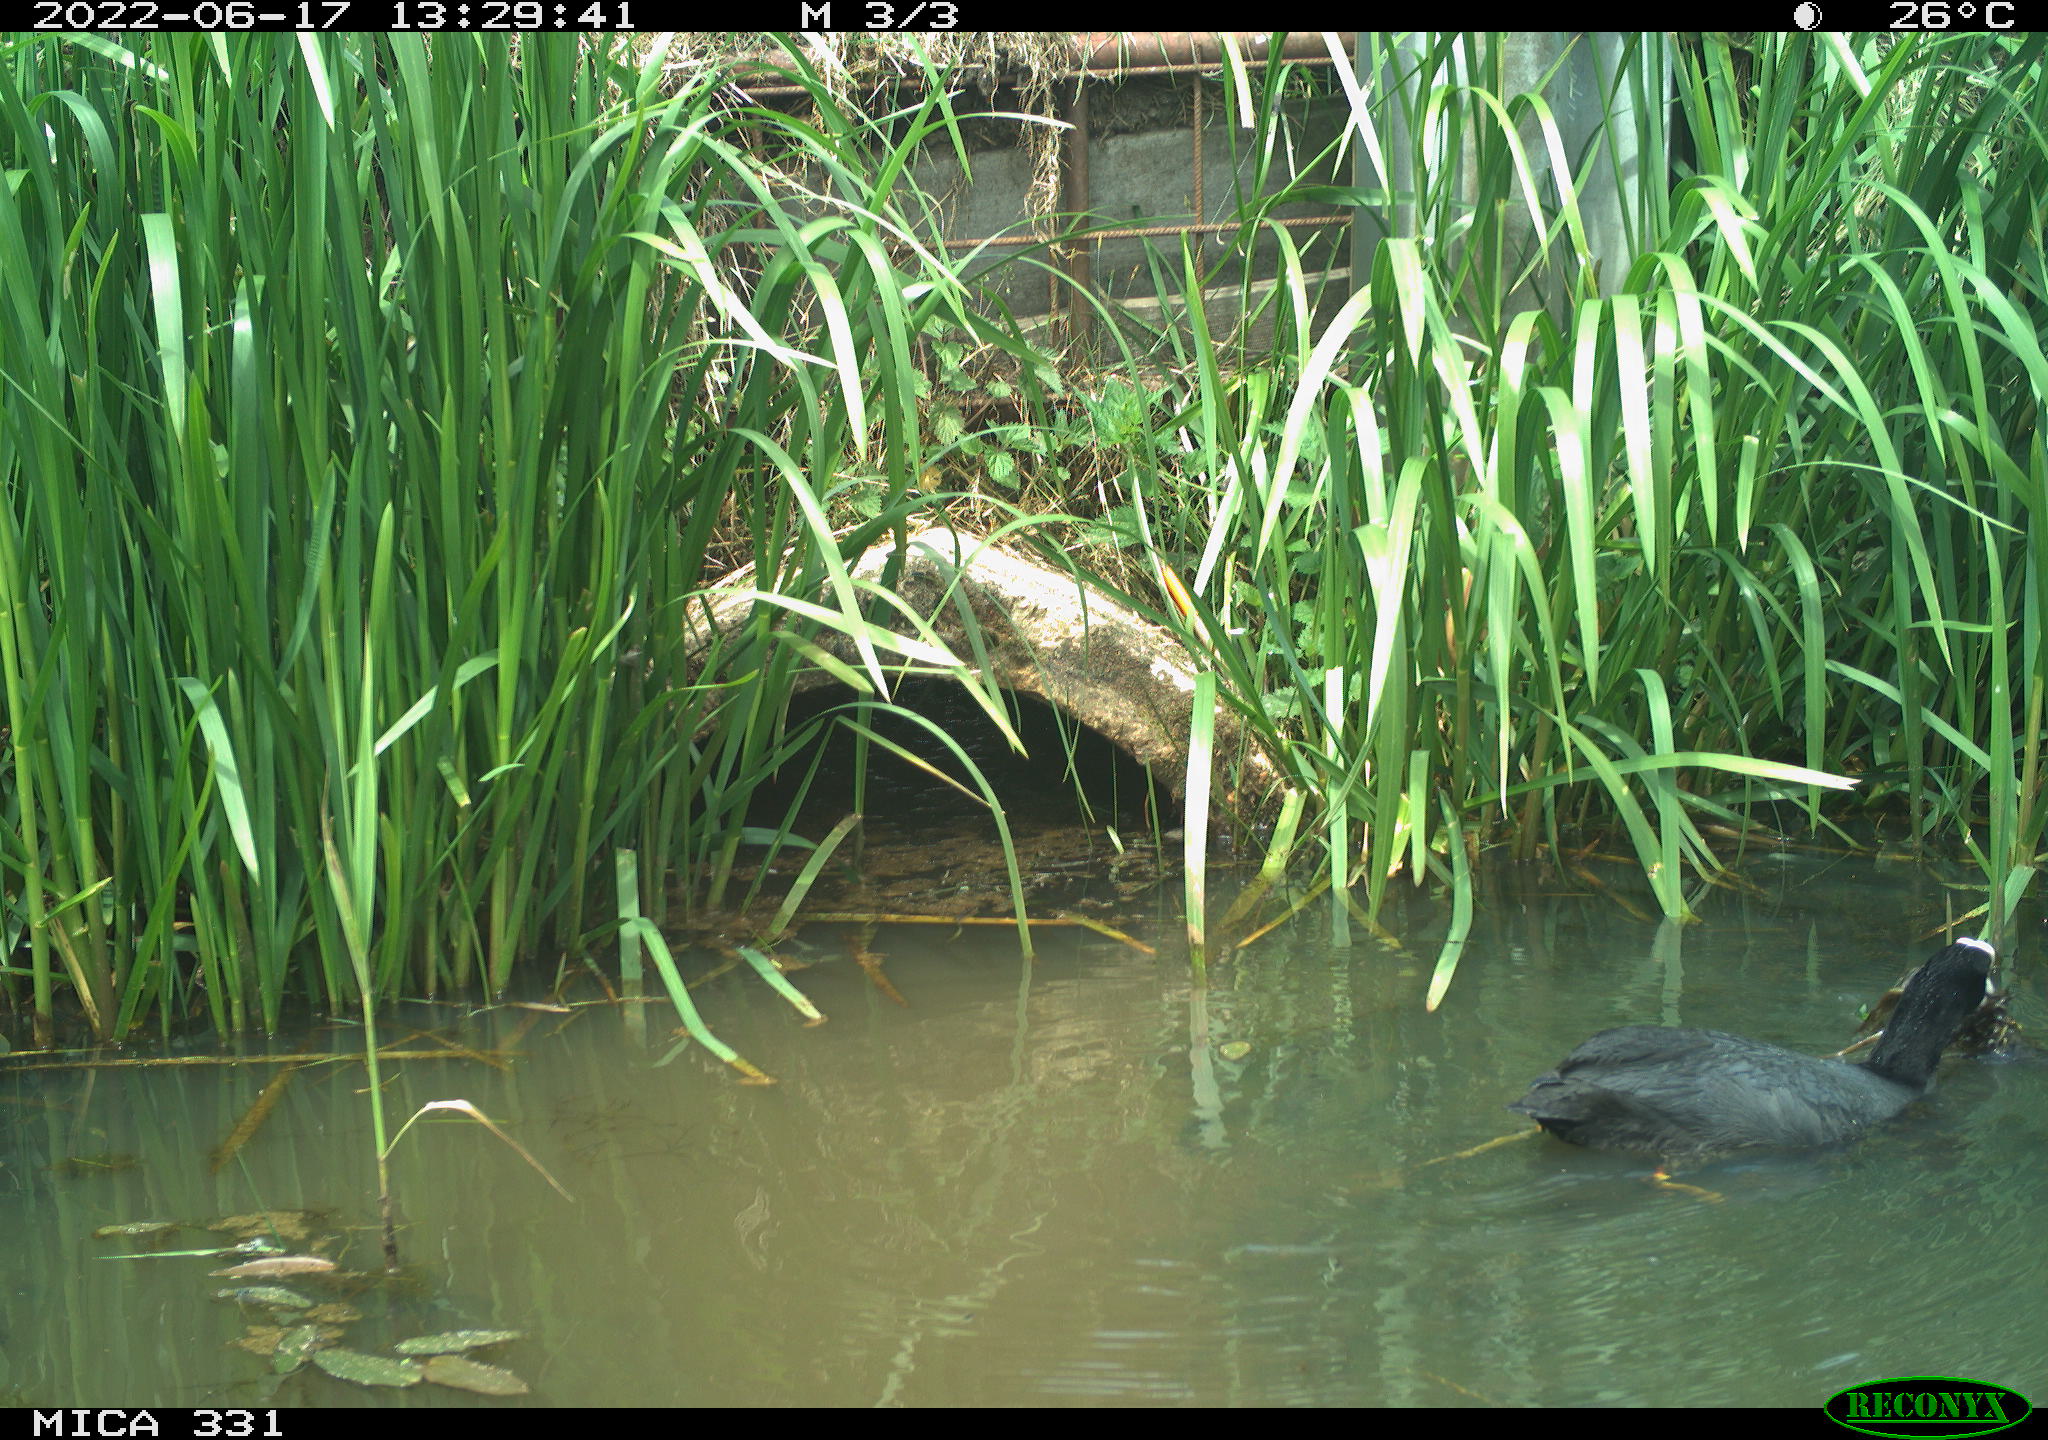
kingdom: Animalia
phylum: Chordata
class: Aves
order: Gruiformes
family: Rallidae
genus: Fulica
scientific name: Fulica atra
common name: Eurasian coot
